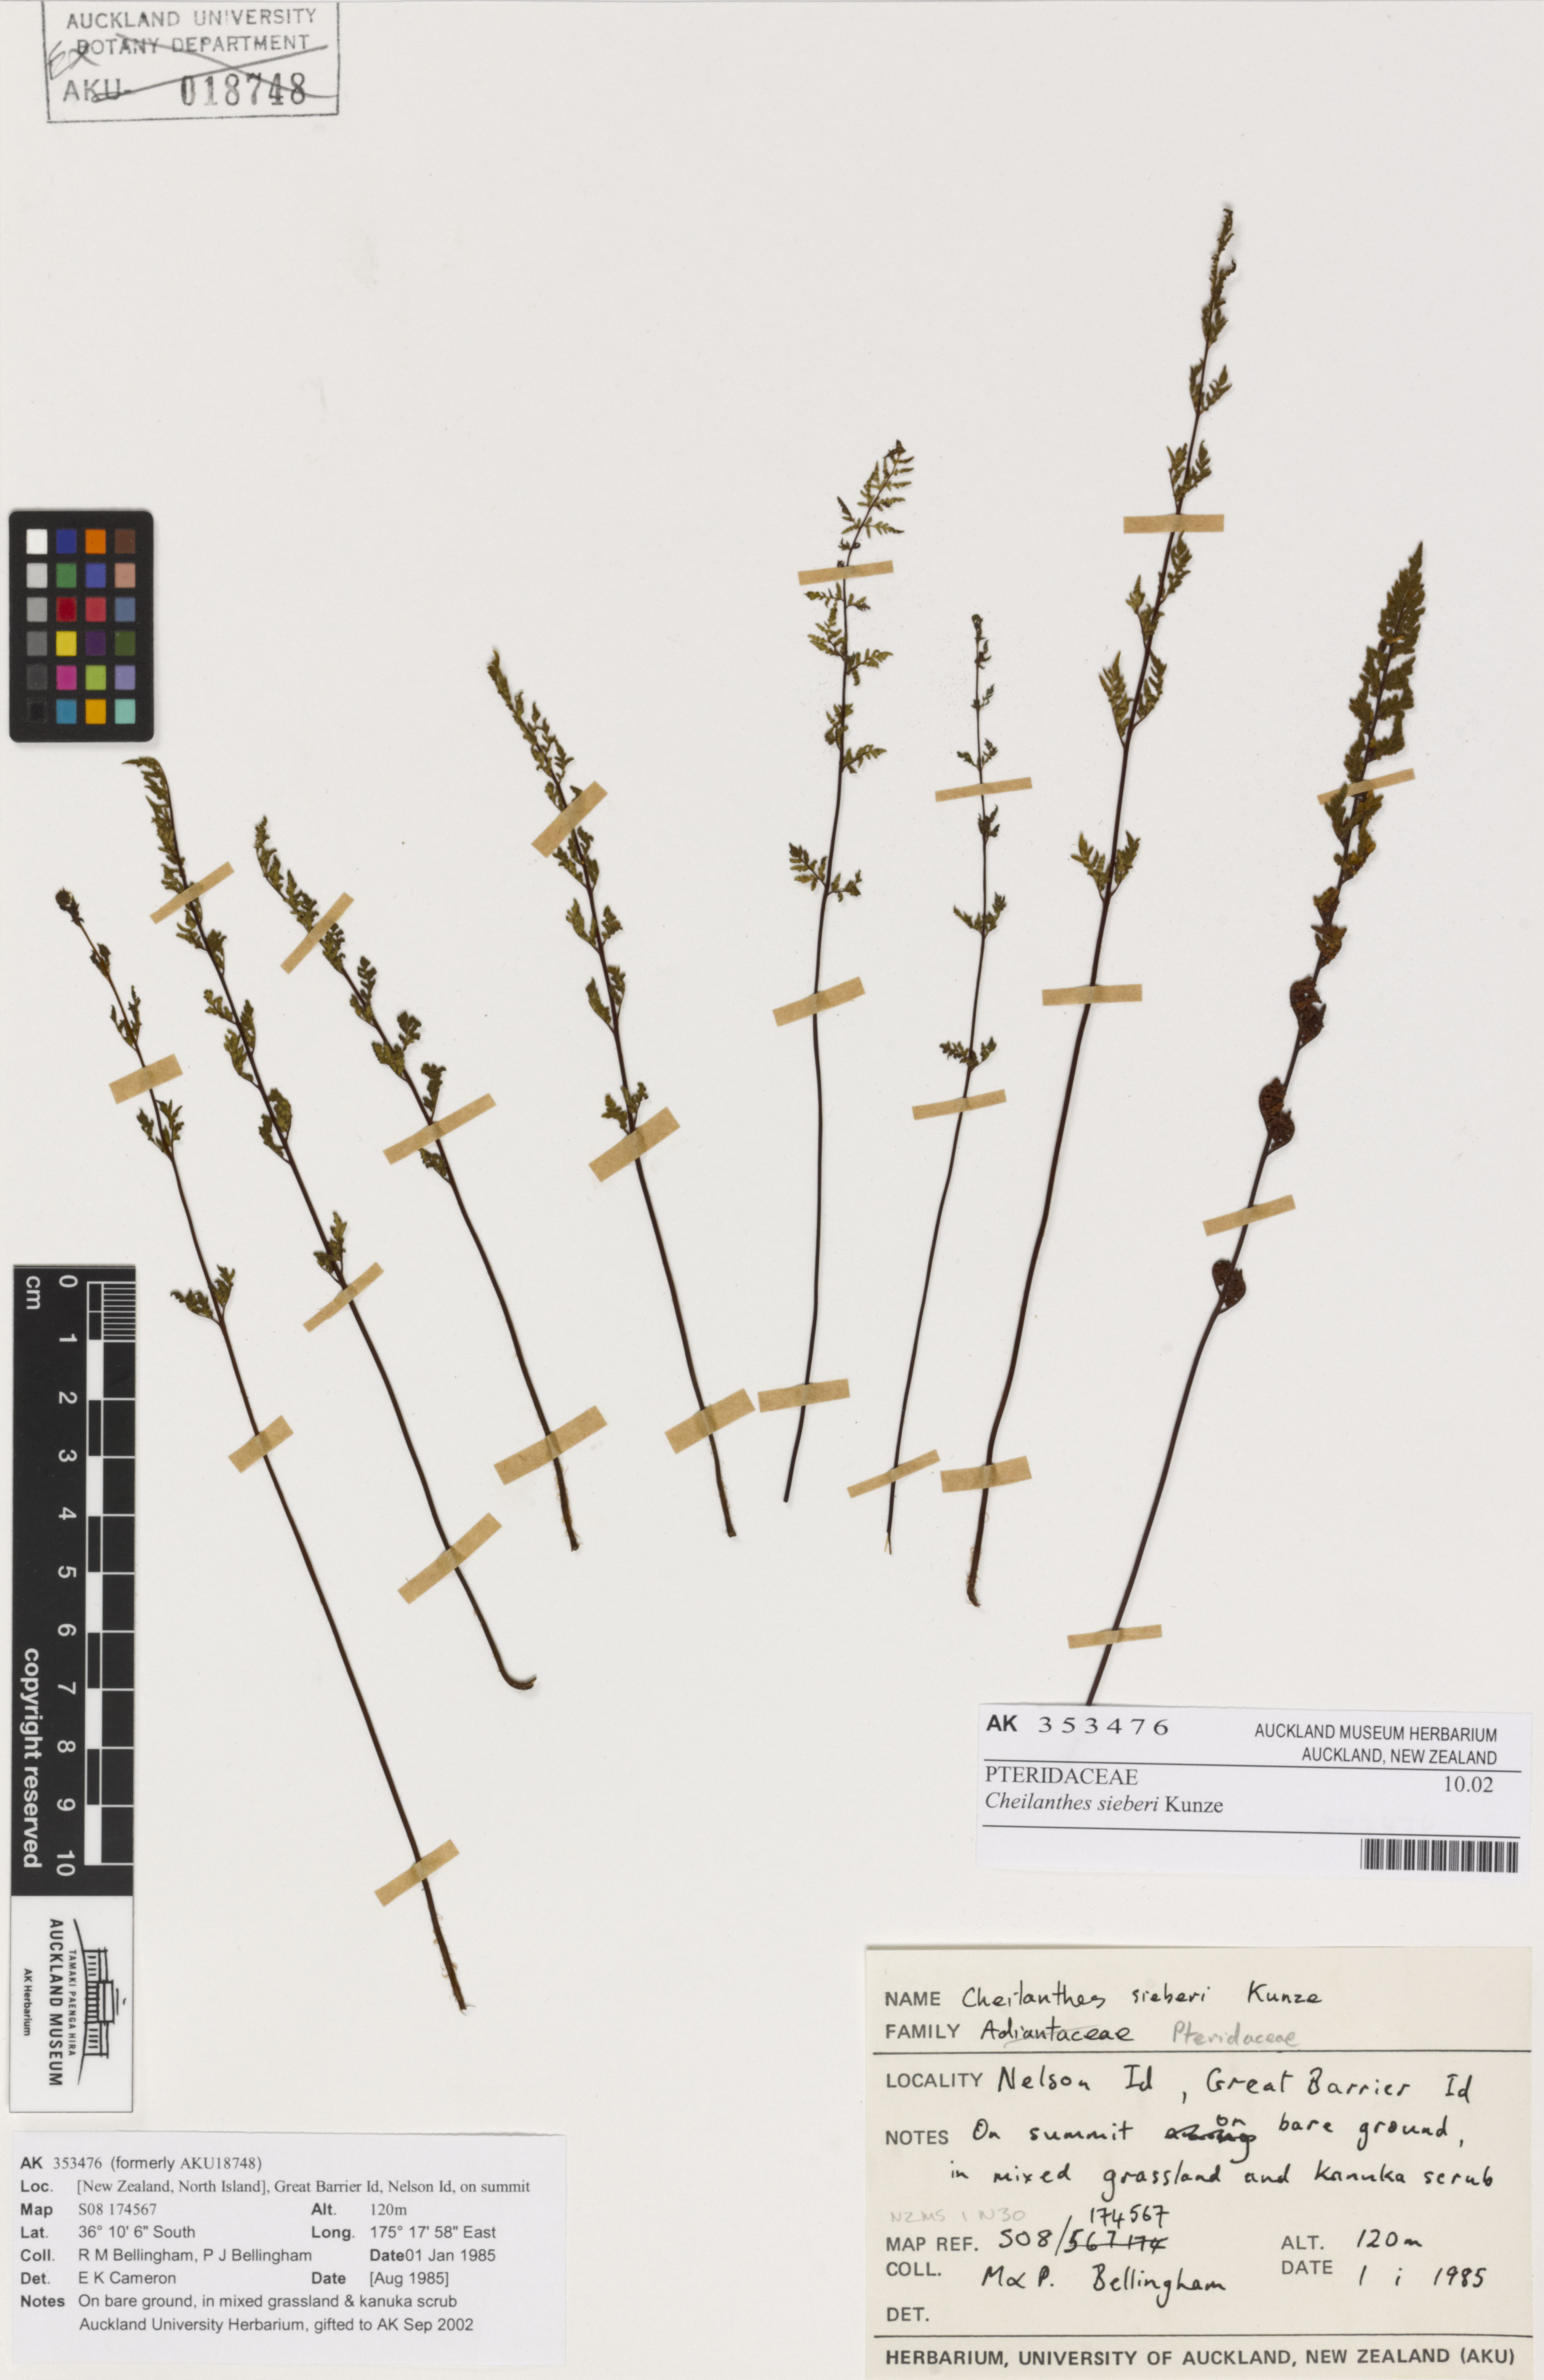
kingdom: Plantae
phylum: Tracheophyta
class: Polypodiopsida
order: Polypodiales
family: Pteridaceae
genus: Cheilanthes
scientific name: Cheilanthes sieberi
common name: Mulga fern
